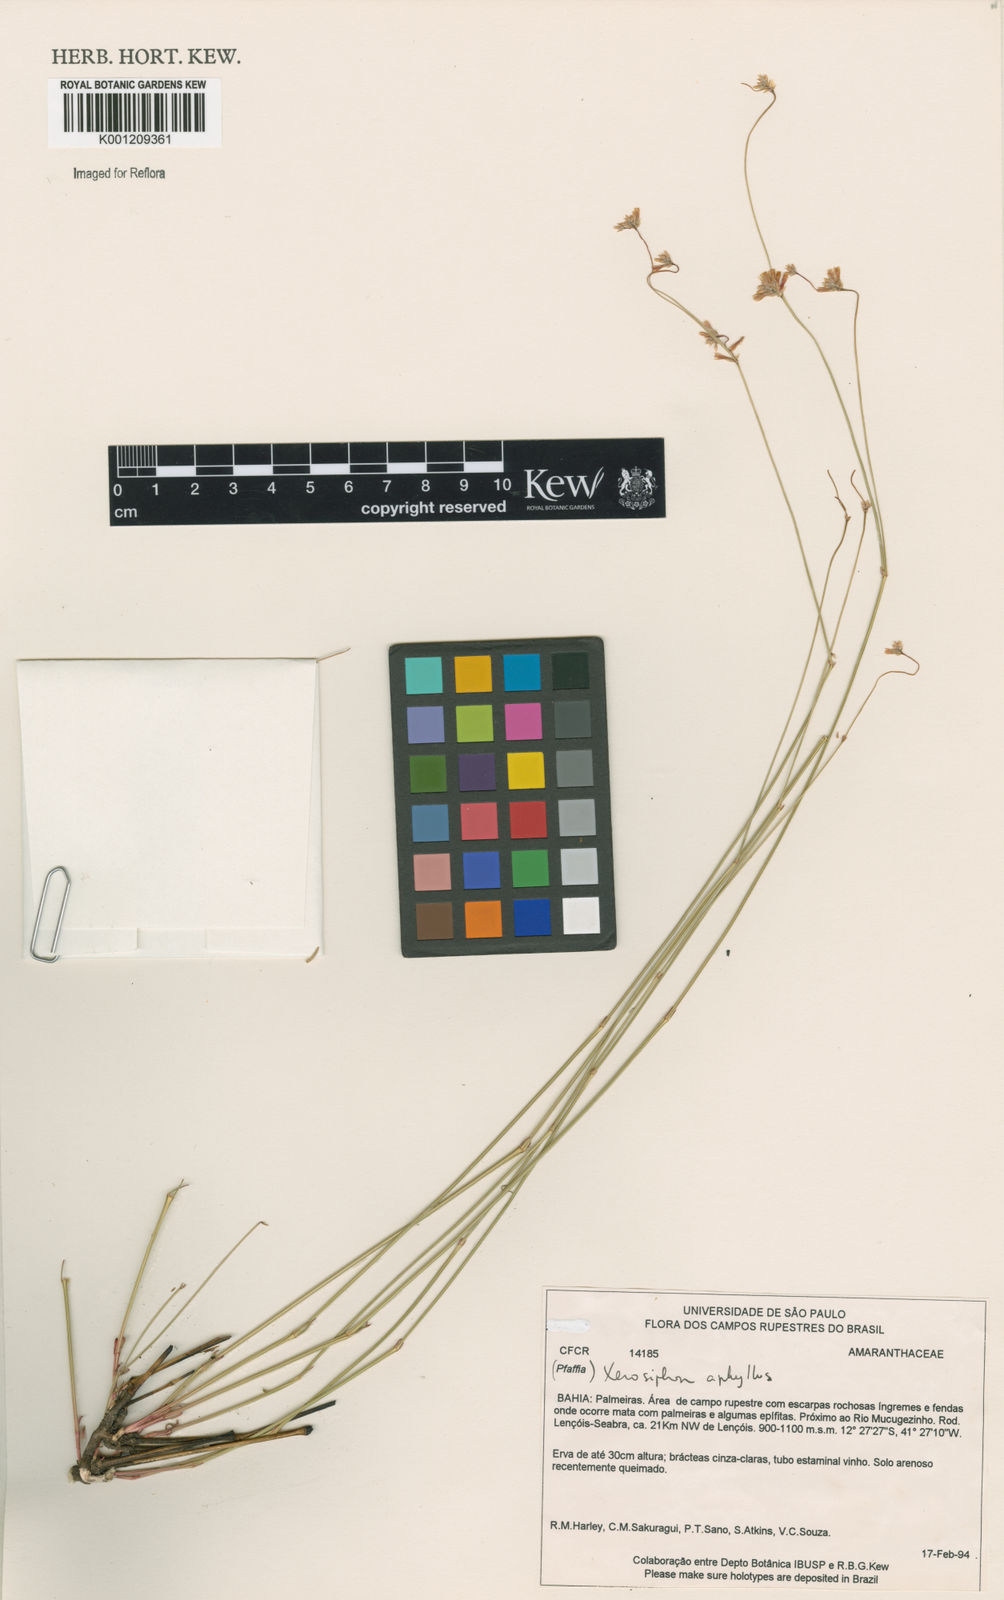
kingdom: Plantae
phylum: Tracheophyta
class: Magnoliopsida
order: Caryophyllales
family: Amaranthaceae
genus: Gomphrena
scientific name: Gomphrena aphylla
